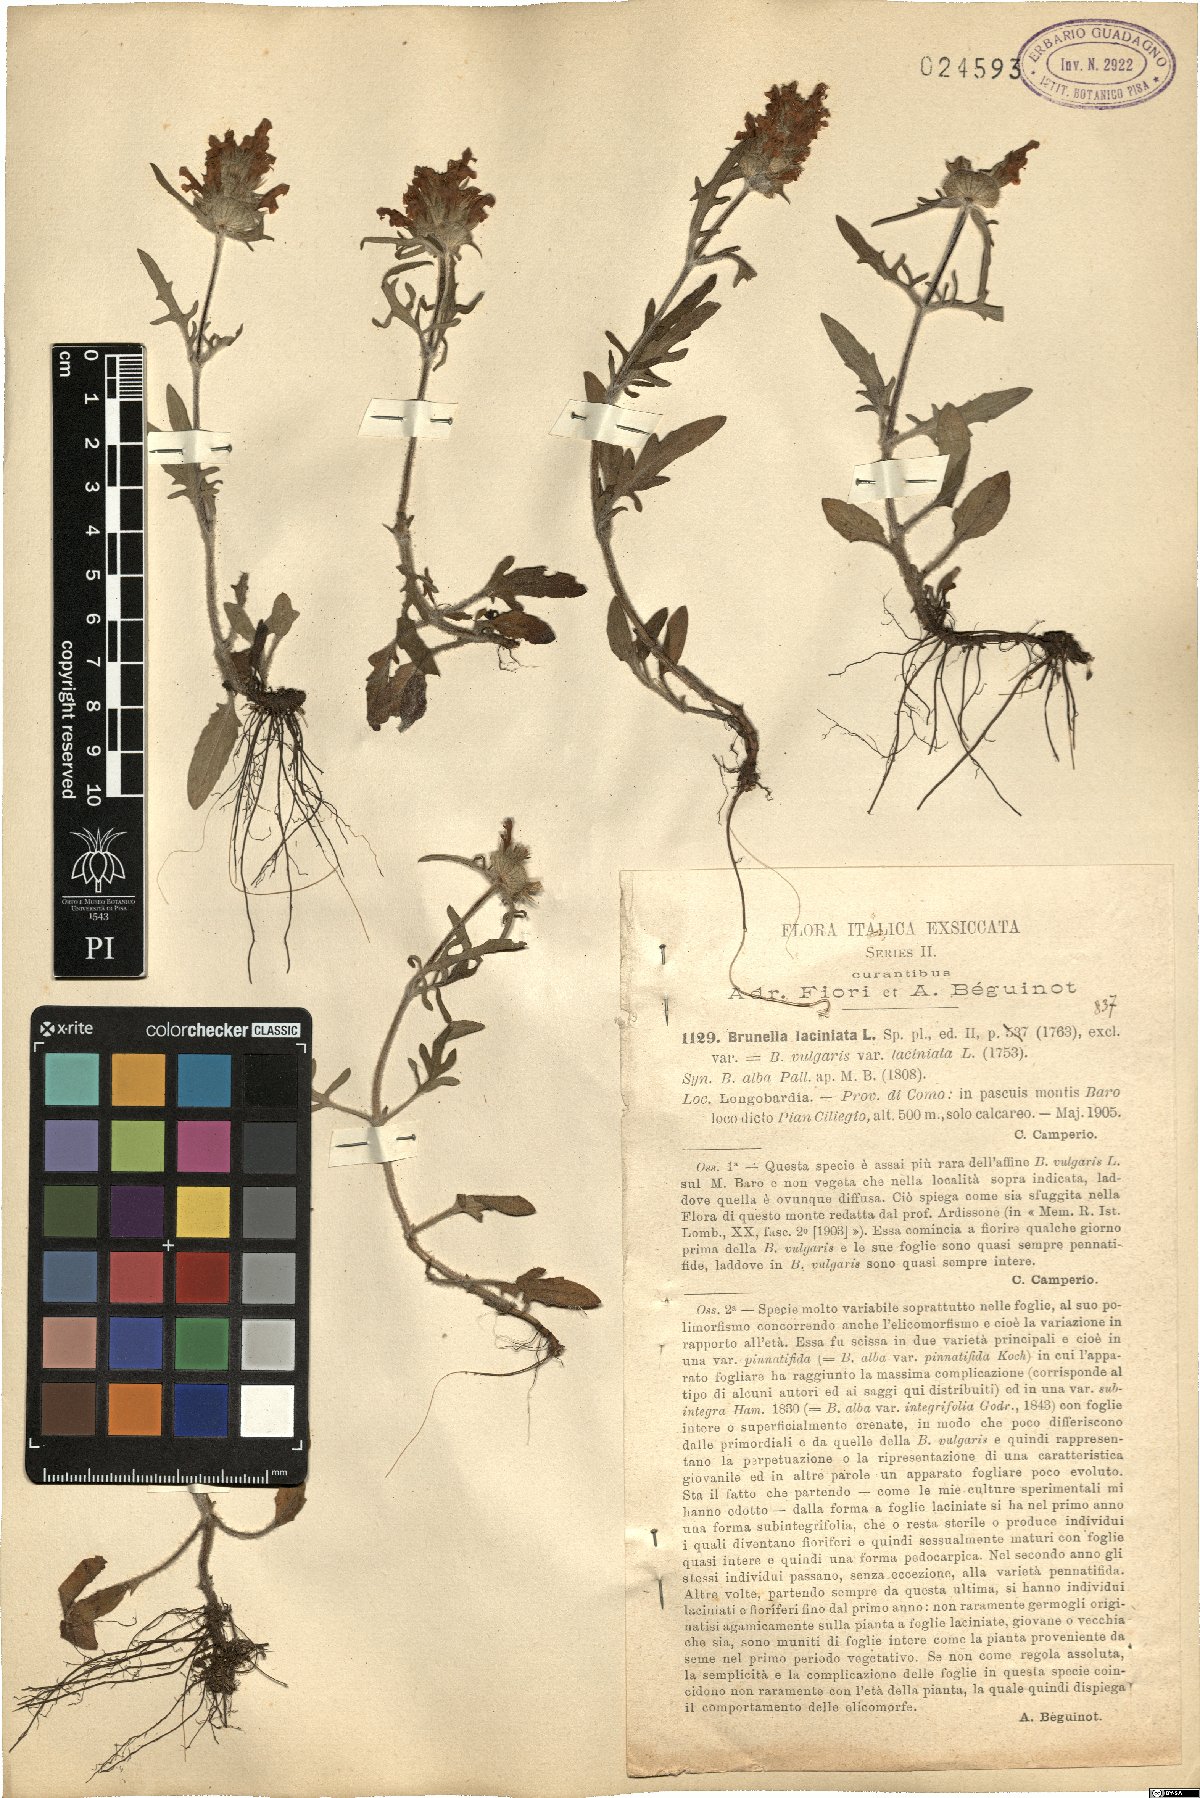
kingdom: Plantae
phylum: Tracheophyta
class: Magnoliopsida
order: Lamiales
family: Lamiaceae
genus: Prunella
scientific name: Prunella laciniata
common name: Cut-leaved selfheal
